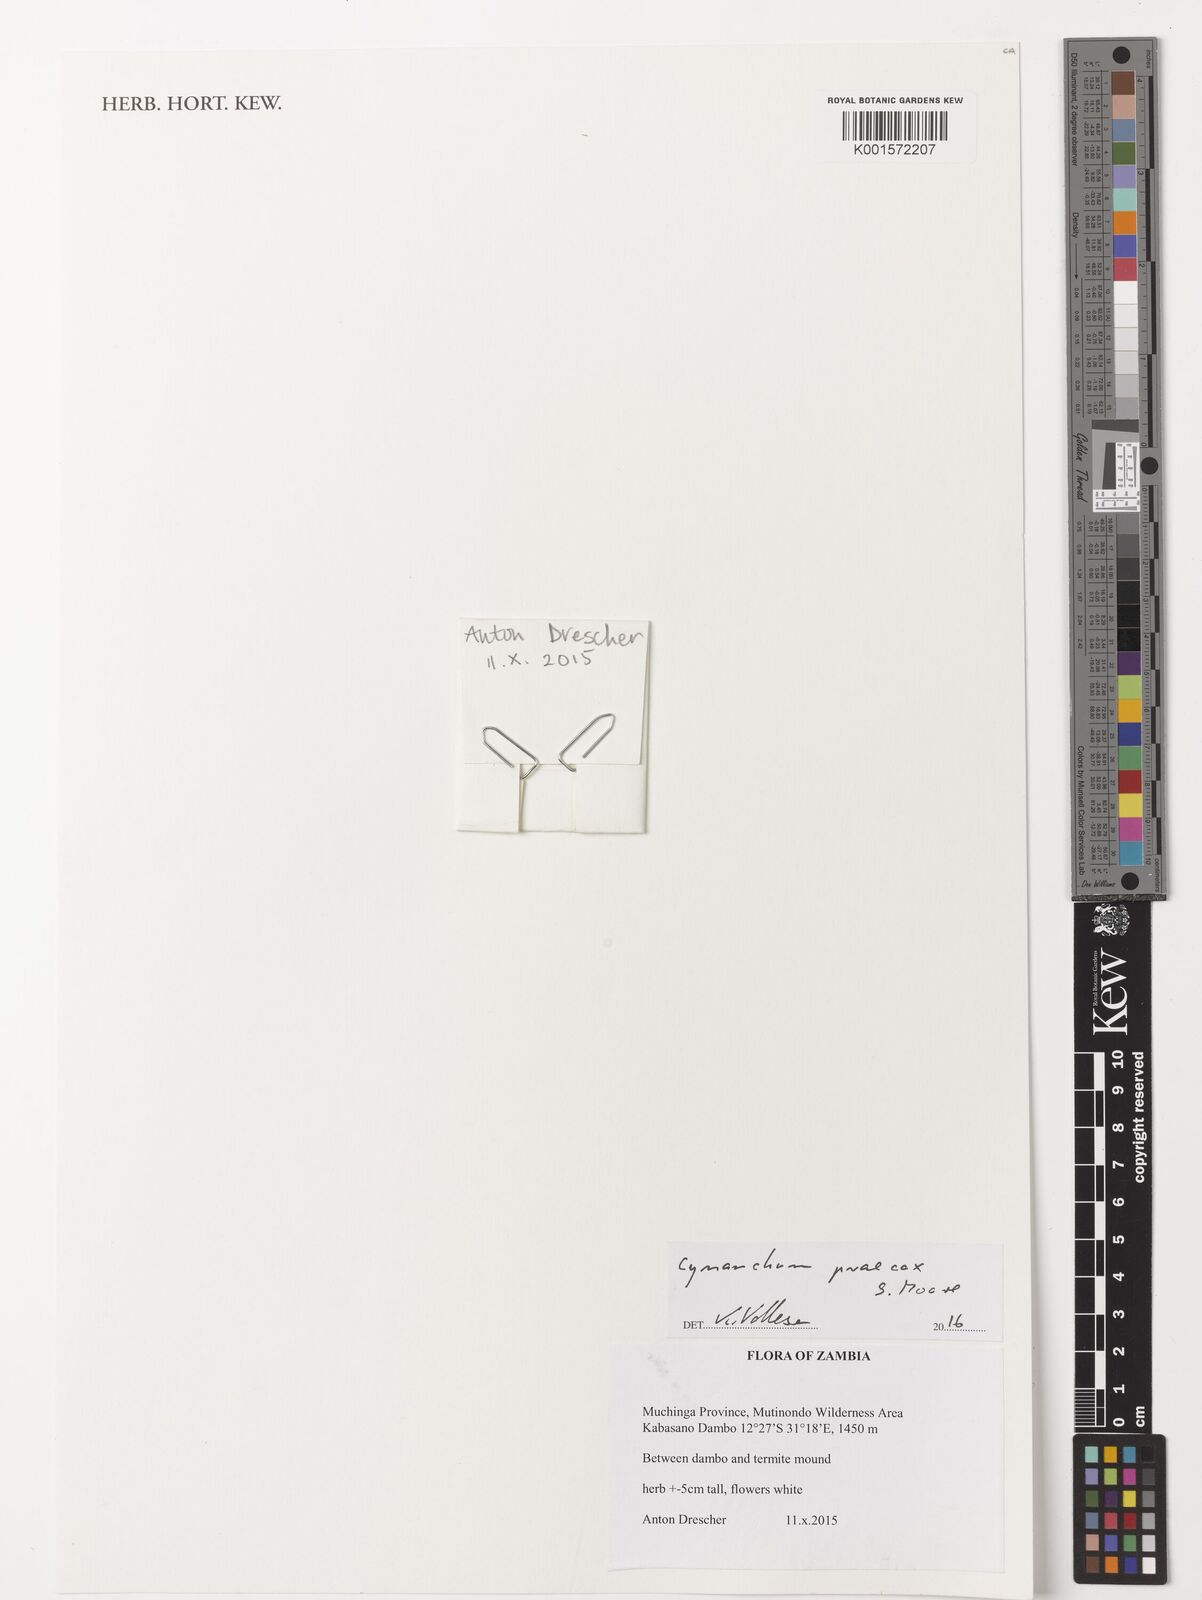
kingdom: Plantae
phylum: Tracheophyta
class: Magnoliopsida
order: Gentianales
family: Apocynaceae
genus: Cynanchum
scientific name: Cynanchum praecox
